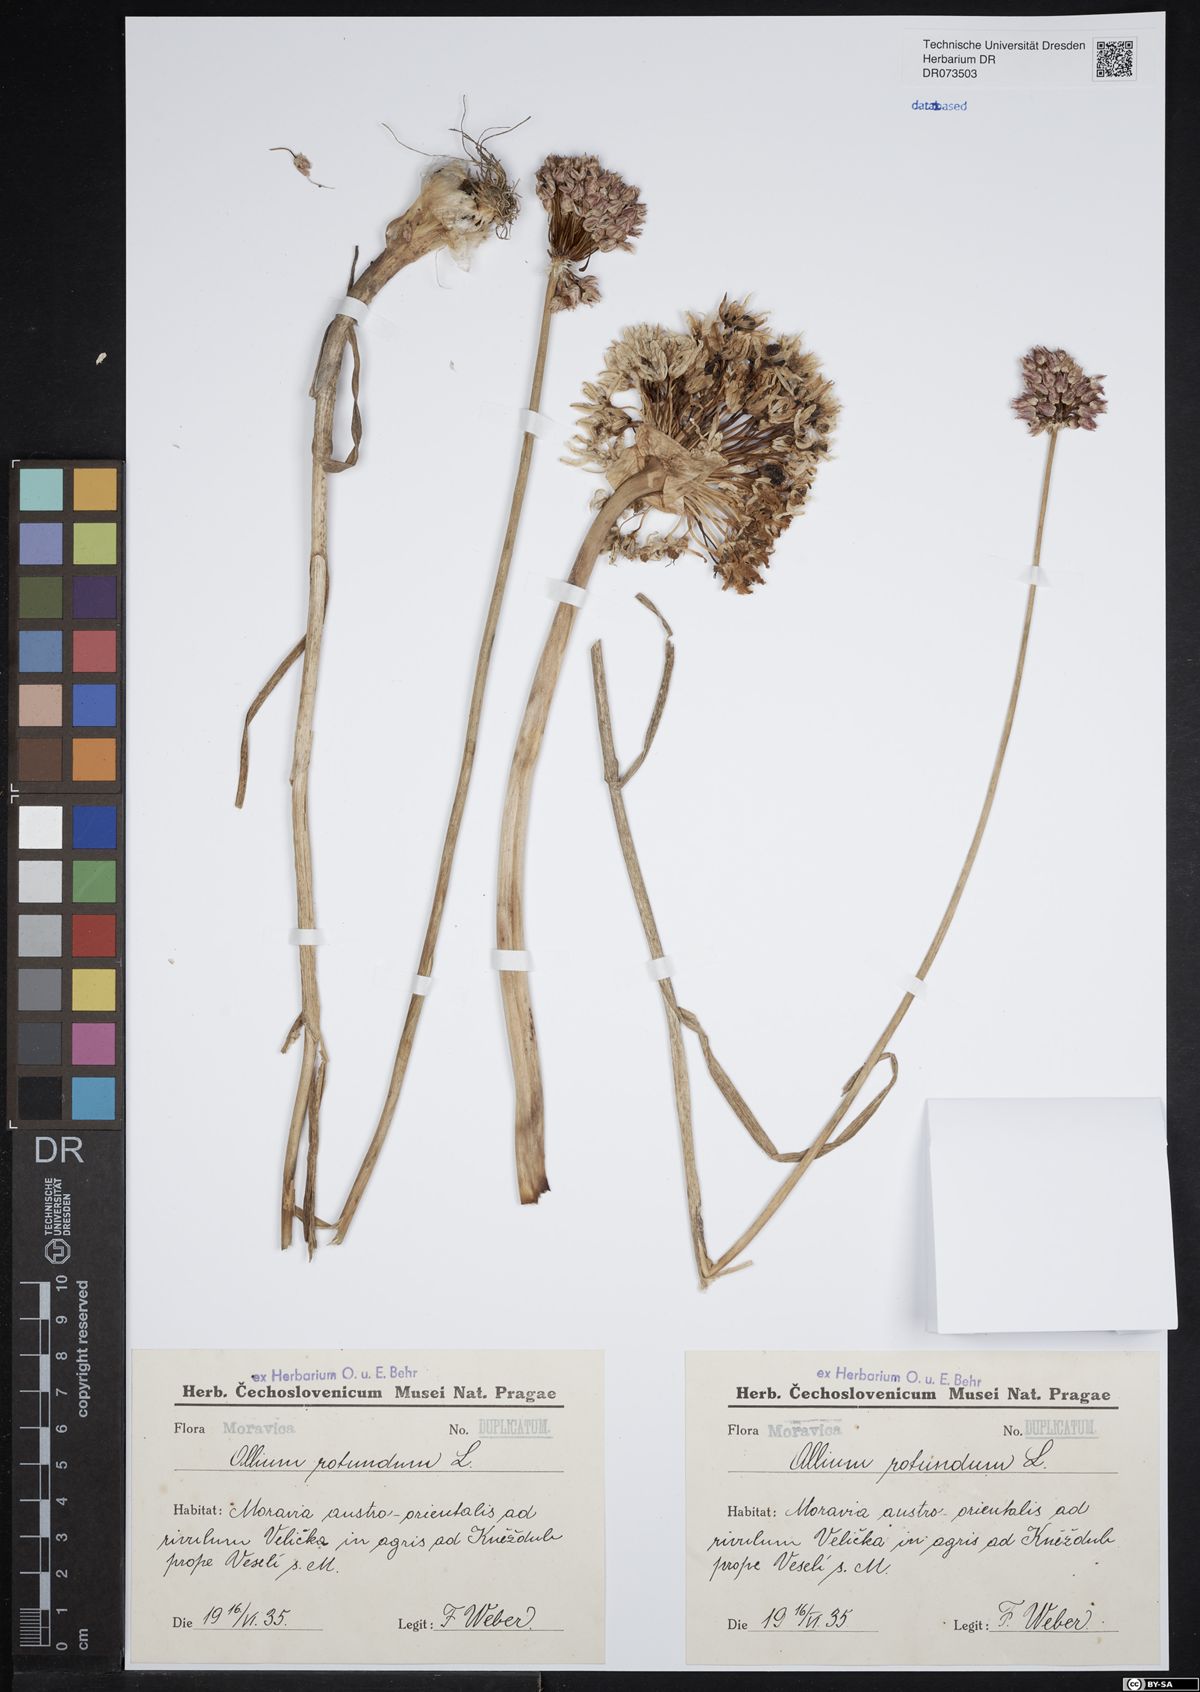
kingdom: Plantae
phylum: Tracheophyta
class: Liliopsida
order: Asparagales
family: Amaryllidaceae
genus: Allium
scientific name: Allium rotundum
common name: Sand leek
